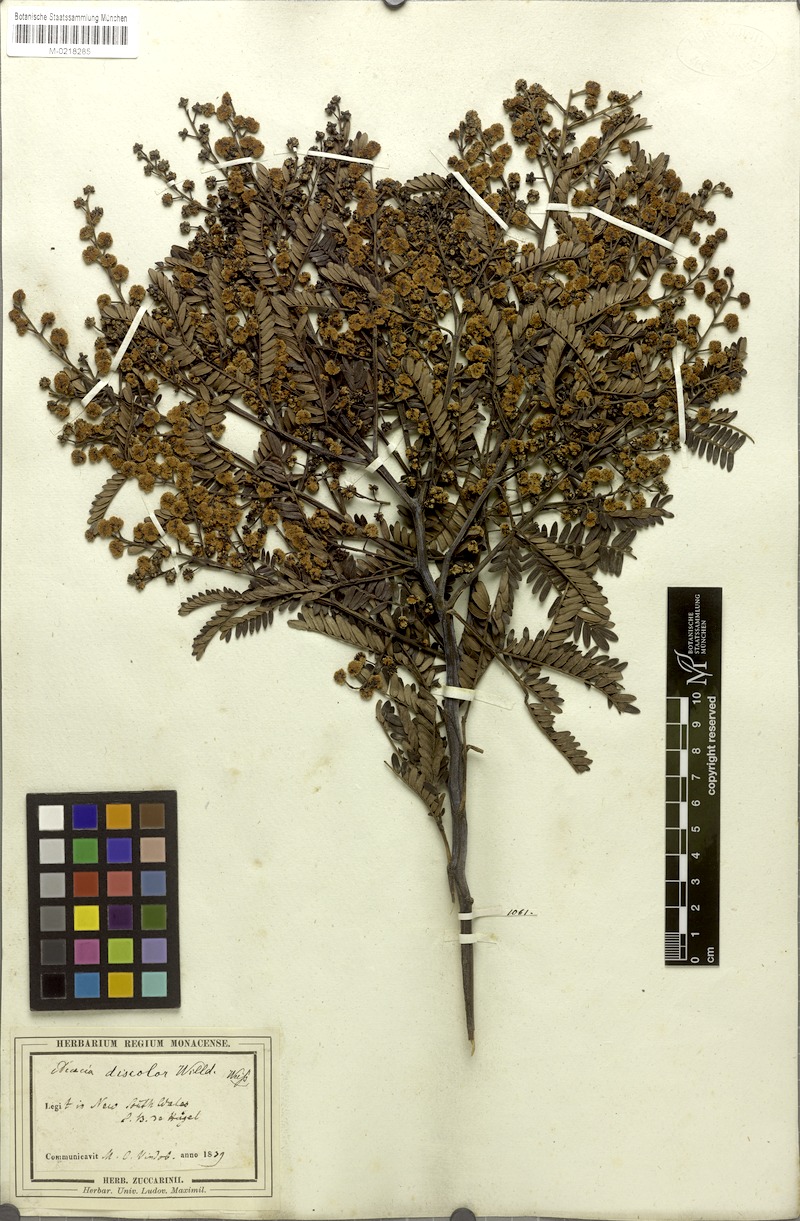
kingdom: Plantae
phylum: Tracheophyta
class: Magnoliopsida
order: Fabales
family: Fabaceae
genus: Acacia
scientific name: Acacia terminalis
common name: Cedar wattle
